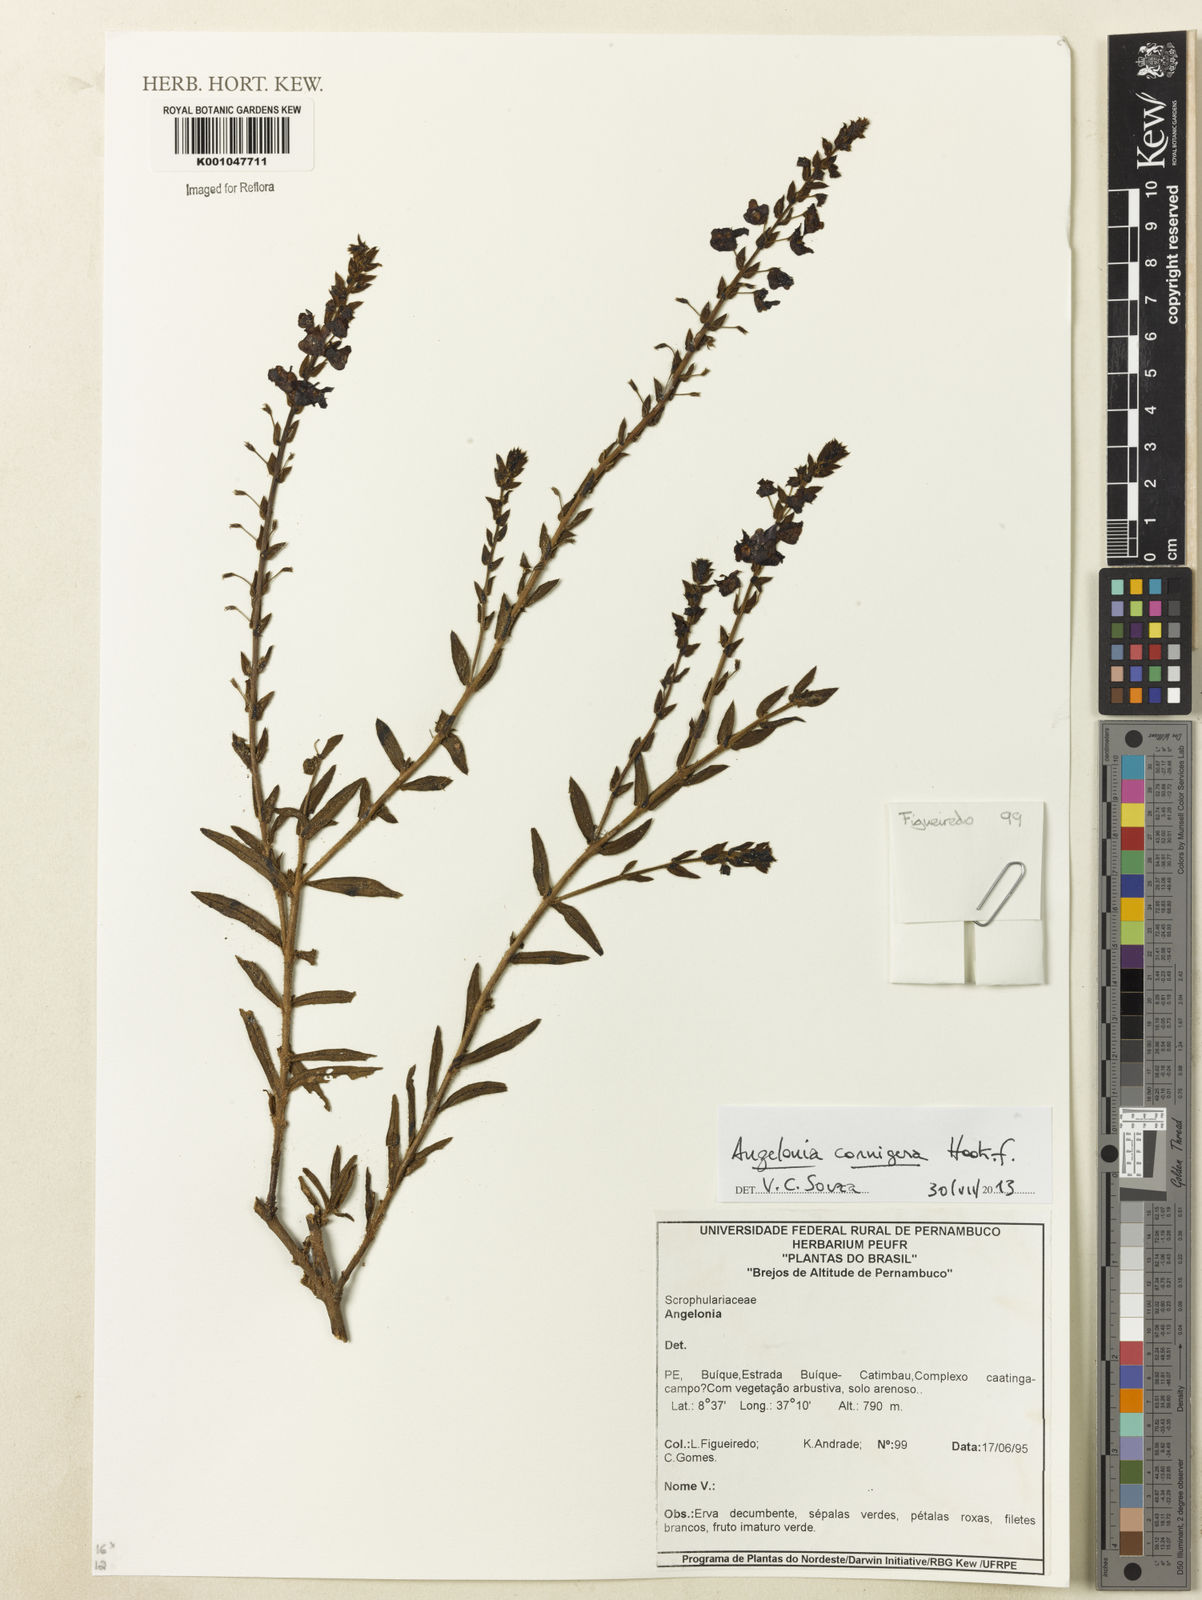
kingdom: Plantae
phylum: Tracheophyta
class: Magnoliopsida
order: Lamiales
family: Plantaginaceae
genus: Angelonia
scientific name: Angelonia cornigera
